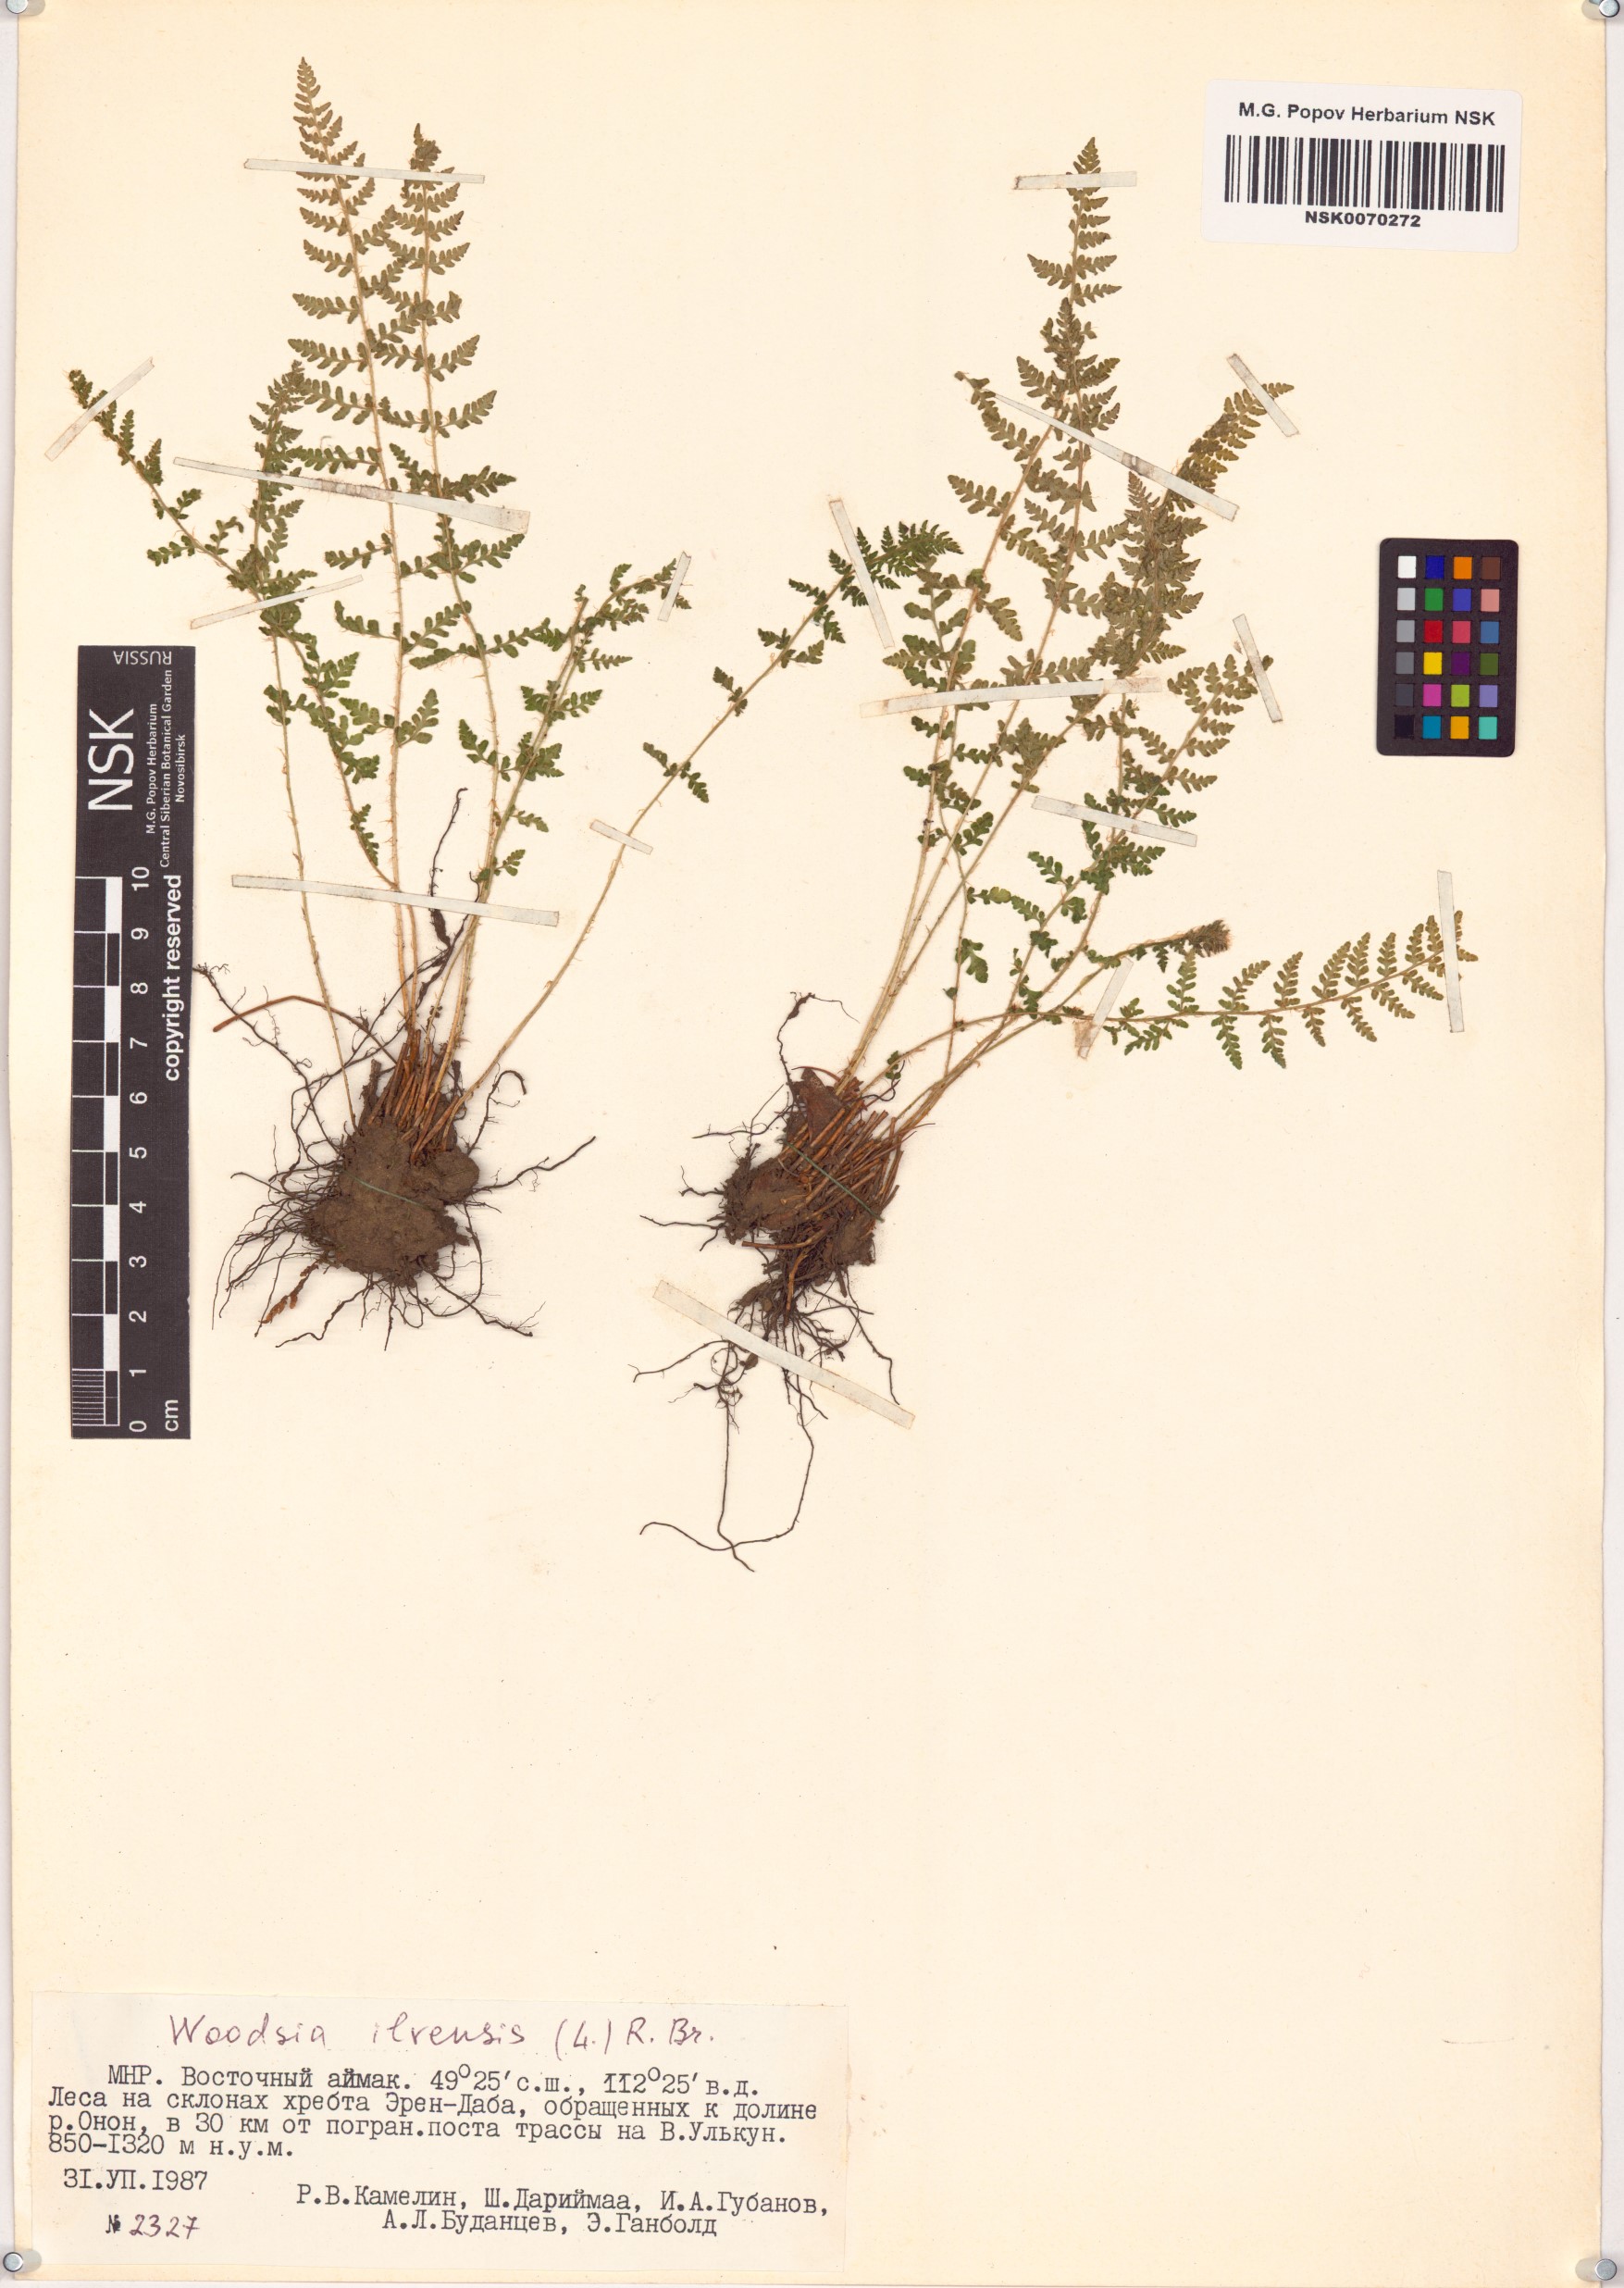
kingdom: Plantae
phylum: Tracheophyta
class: Polypodiopsida
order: Polypodiales
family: Woodsiaceae
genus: Woodsia
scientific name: Woodsia ilvensis
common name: Fragrant woodsia
